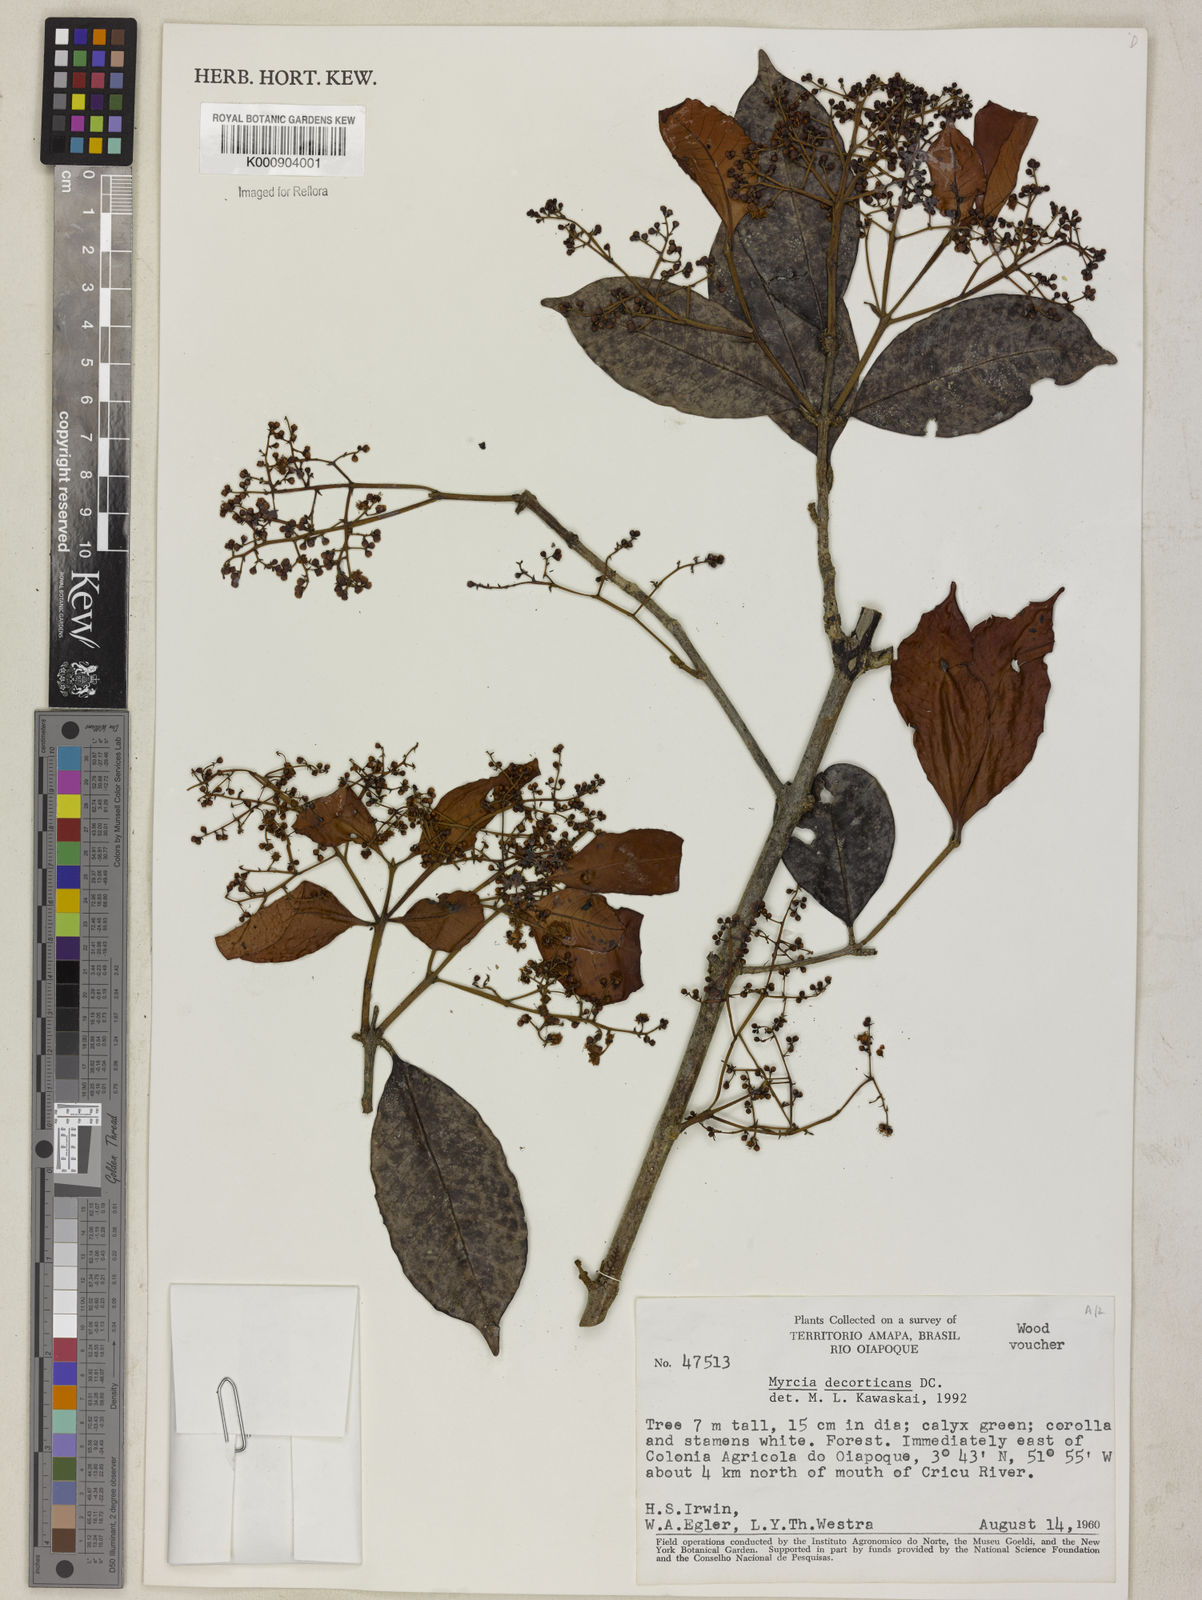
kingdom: Plantae
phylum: Tracheophyta
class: Magnoliopsida
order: Myrtales
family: Myrtaceae
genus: Myrcia
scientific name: Myrcia decorticans
